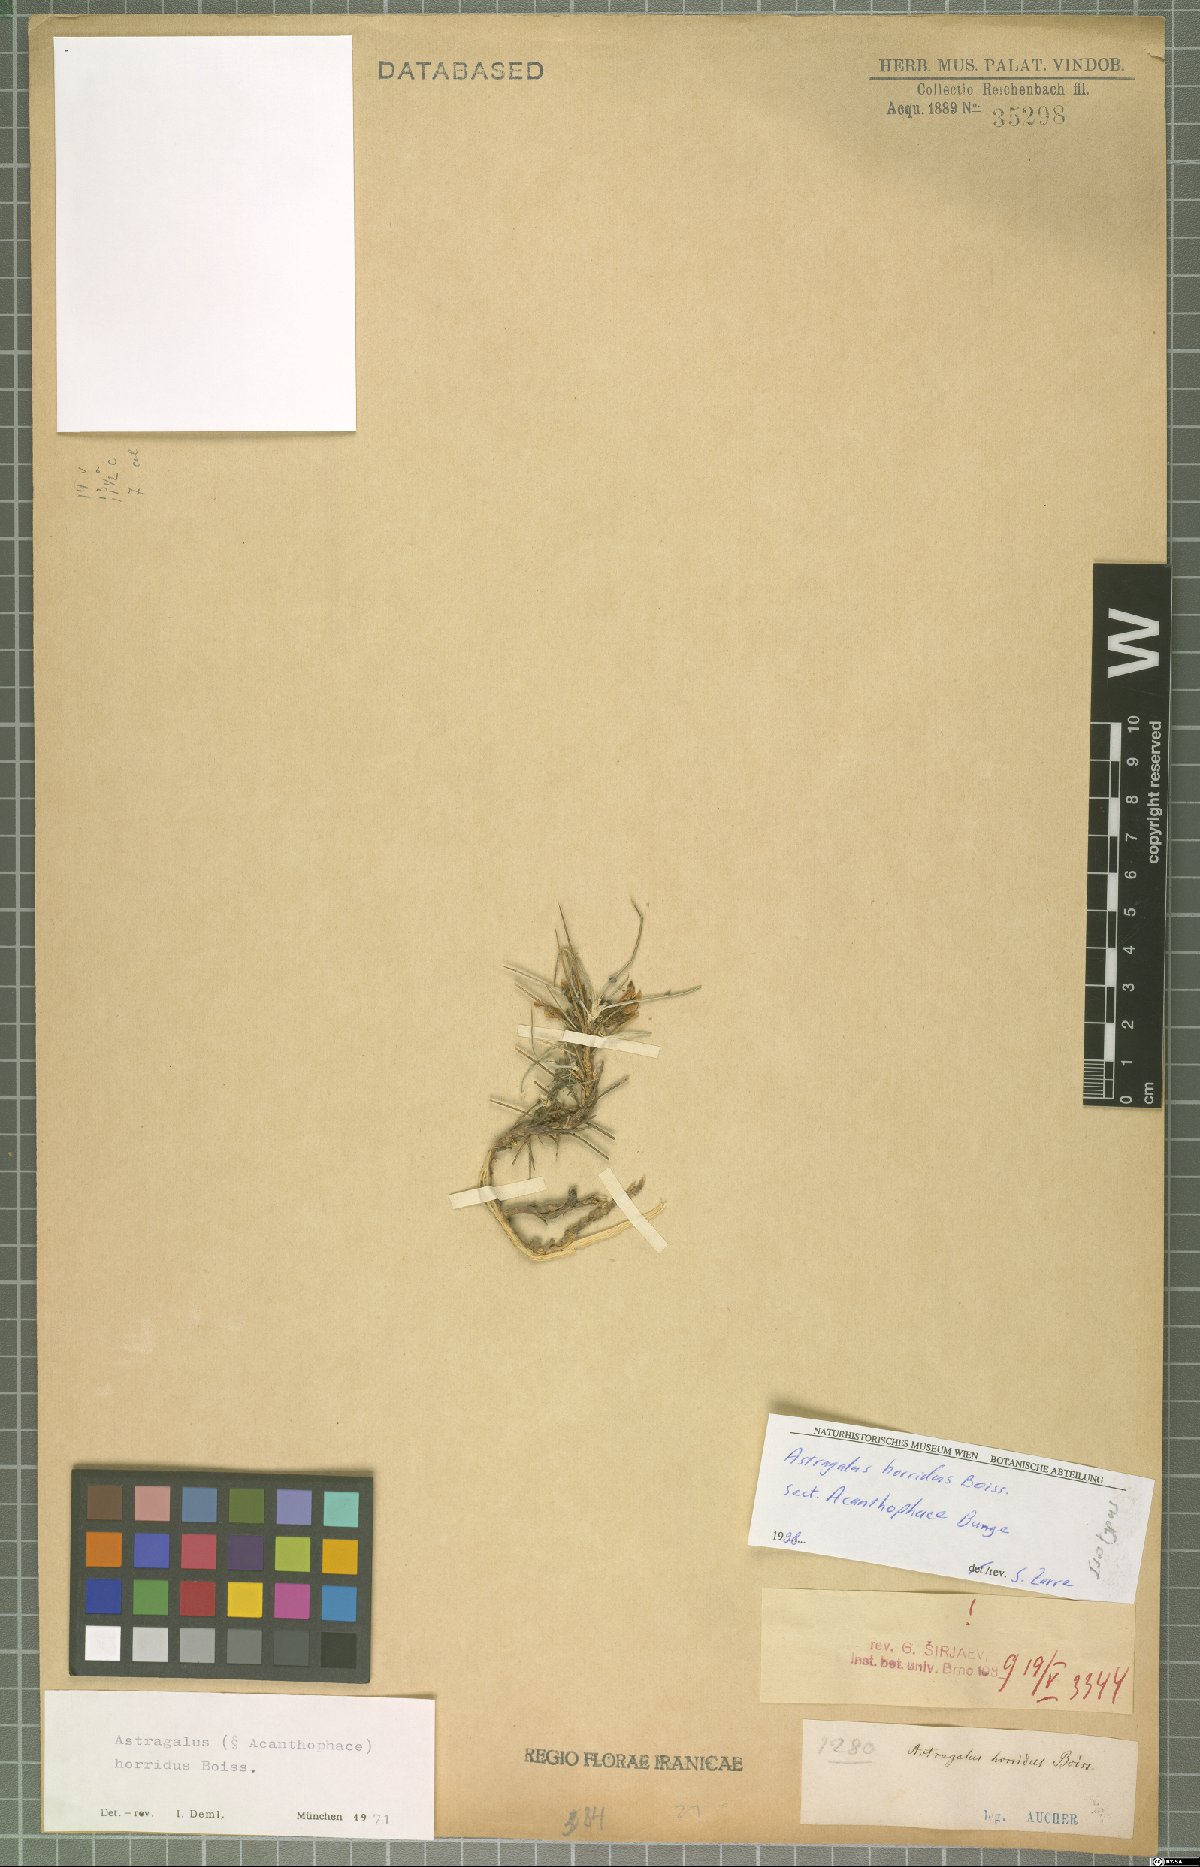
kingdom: Plantae
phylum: Tracheophyta
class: Magnoliopsida
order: Fabales
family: Fabaceae
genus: Astragalus
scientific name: Astragalus horridus
